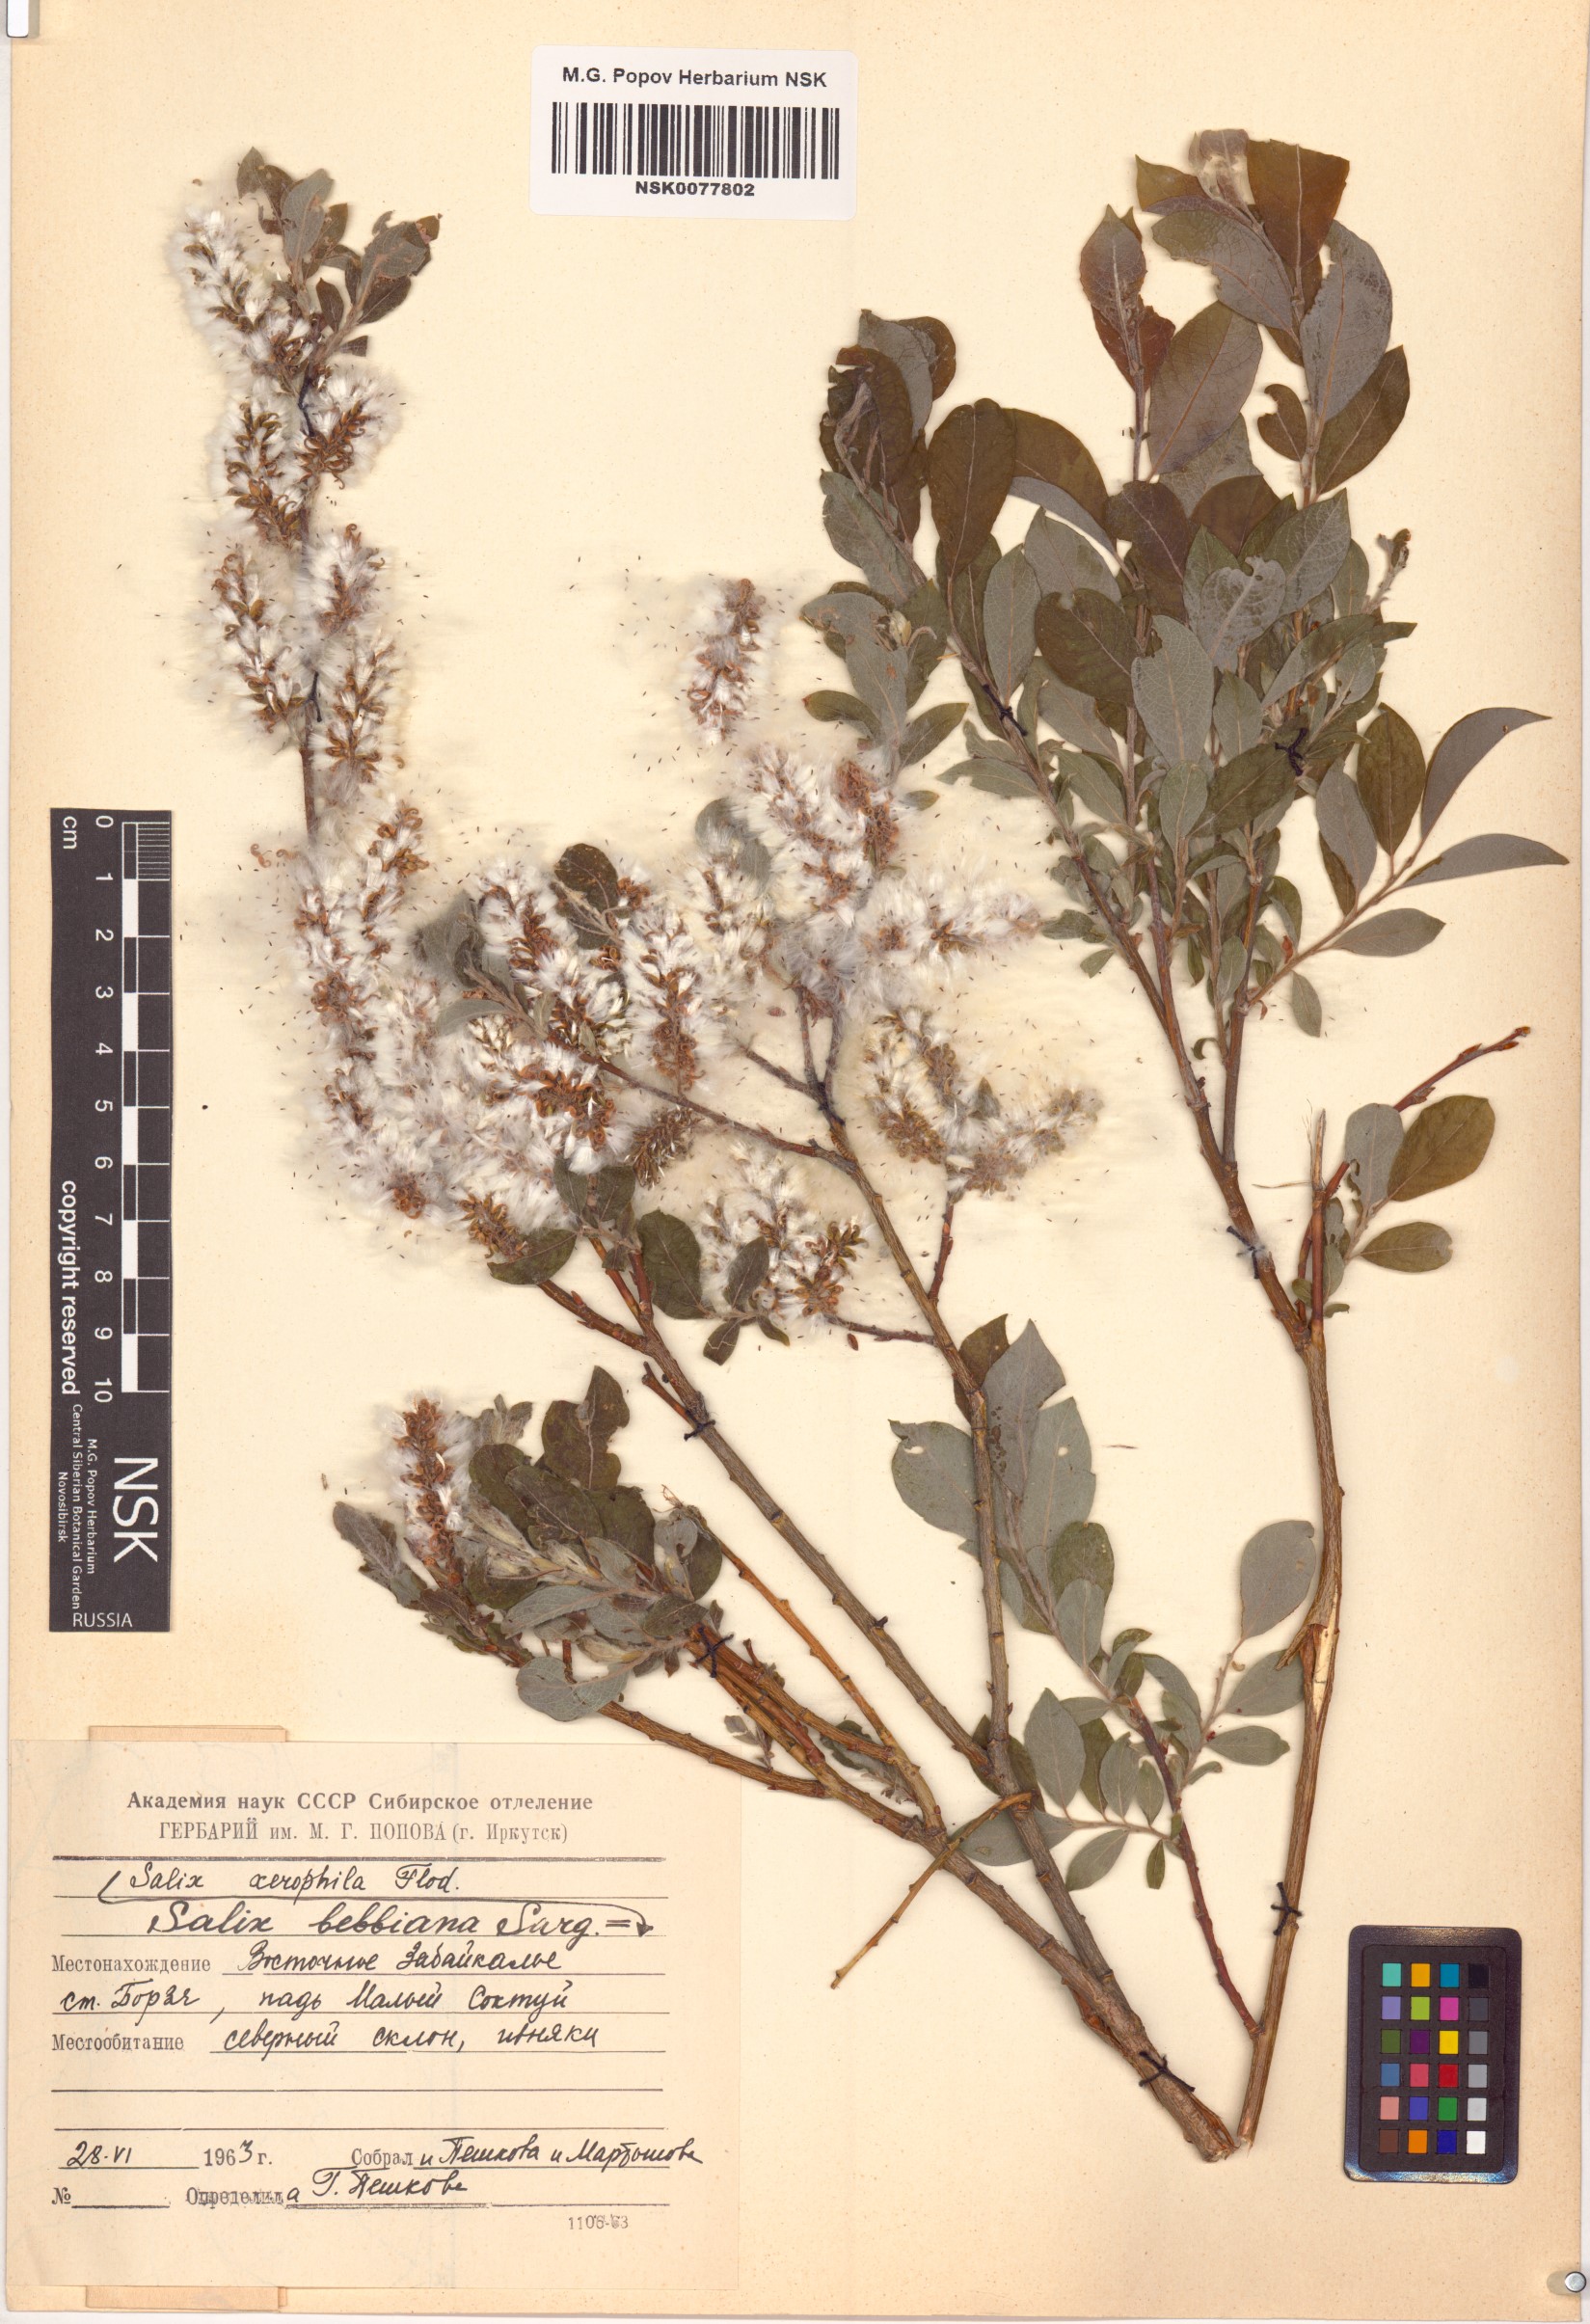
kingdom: Plantae
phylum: Tracheophyta
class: Magnoliopsida
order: Malpighiales
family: Salicaceae
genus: Salix
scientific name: Salix bebbiana
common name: Bebb's willow
